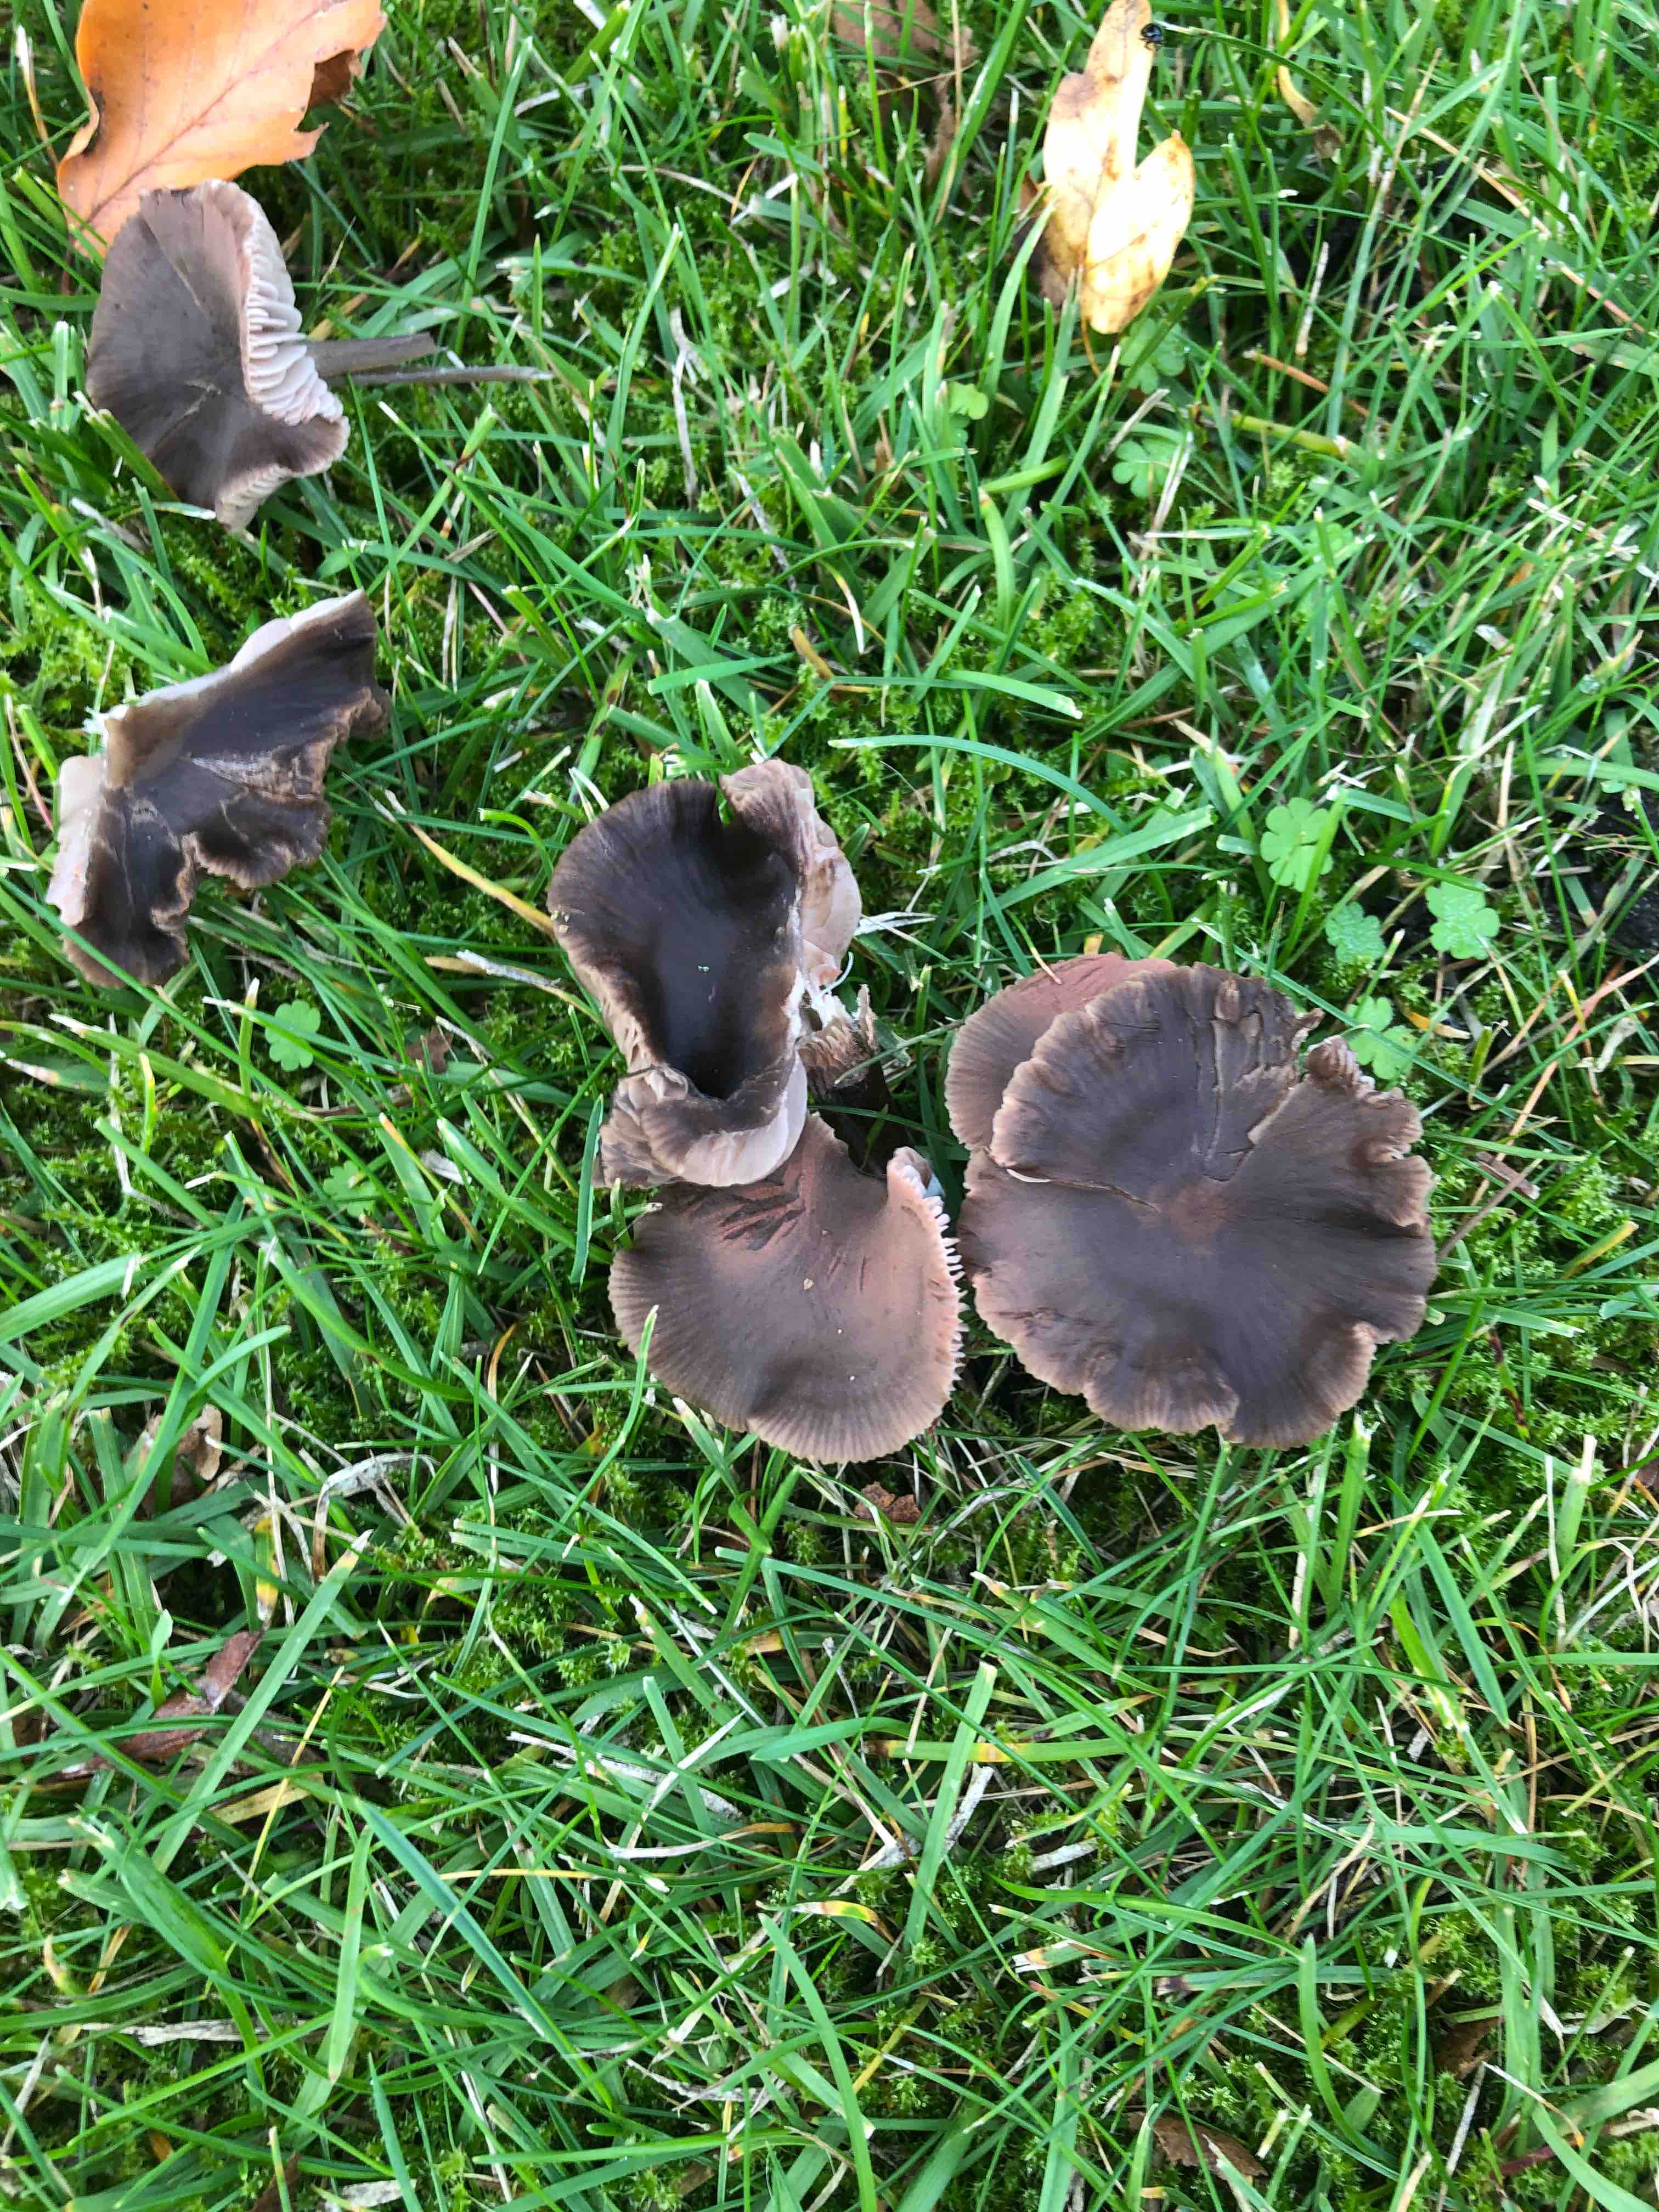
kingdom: Fungi
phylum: Basidiomycota
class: Agaricomycetes
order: Agaricales
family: Entolomataceae
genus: Entoloma
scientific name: Entoloma
